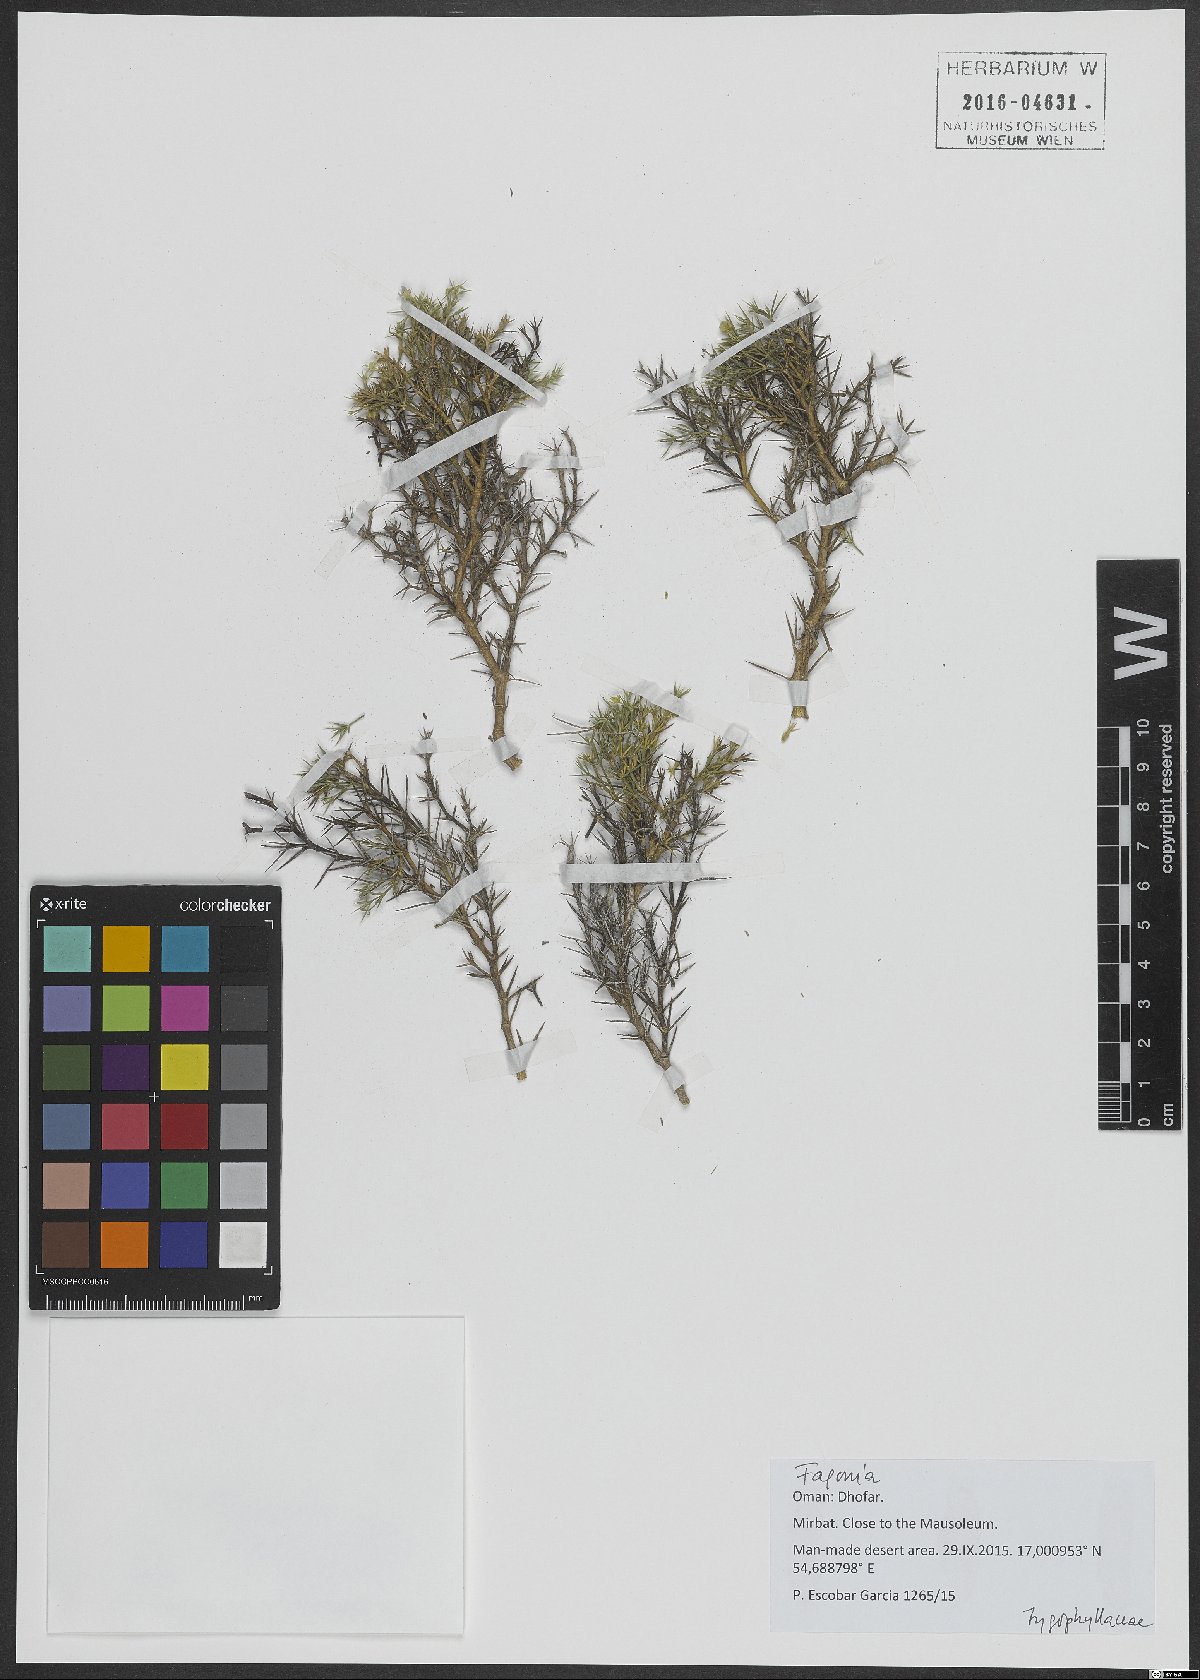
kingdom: Plantae
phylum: Tracheophyta
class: Magnoliopsida
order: Zygophyllales
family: Zygophyllaceae
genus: Fagonia
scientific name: Fagonia
